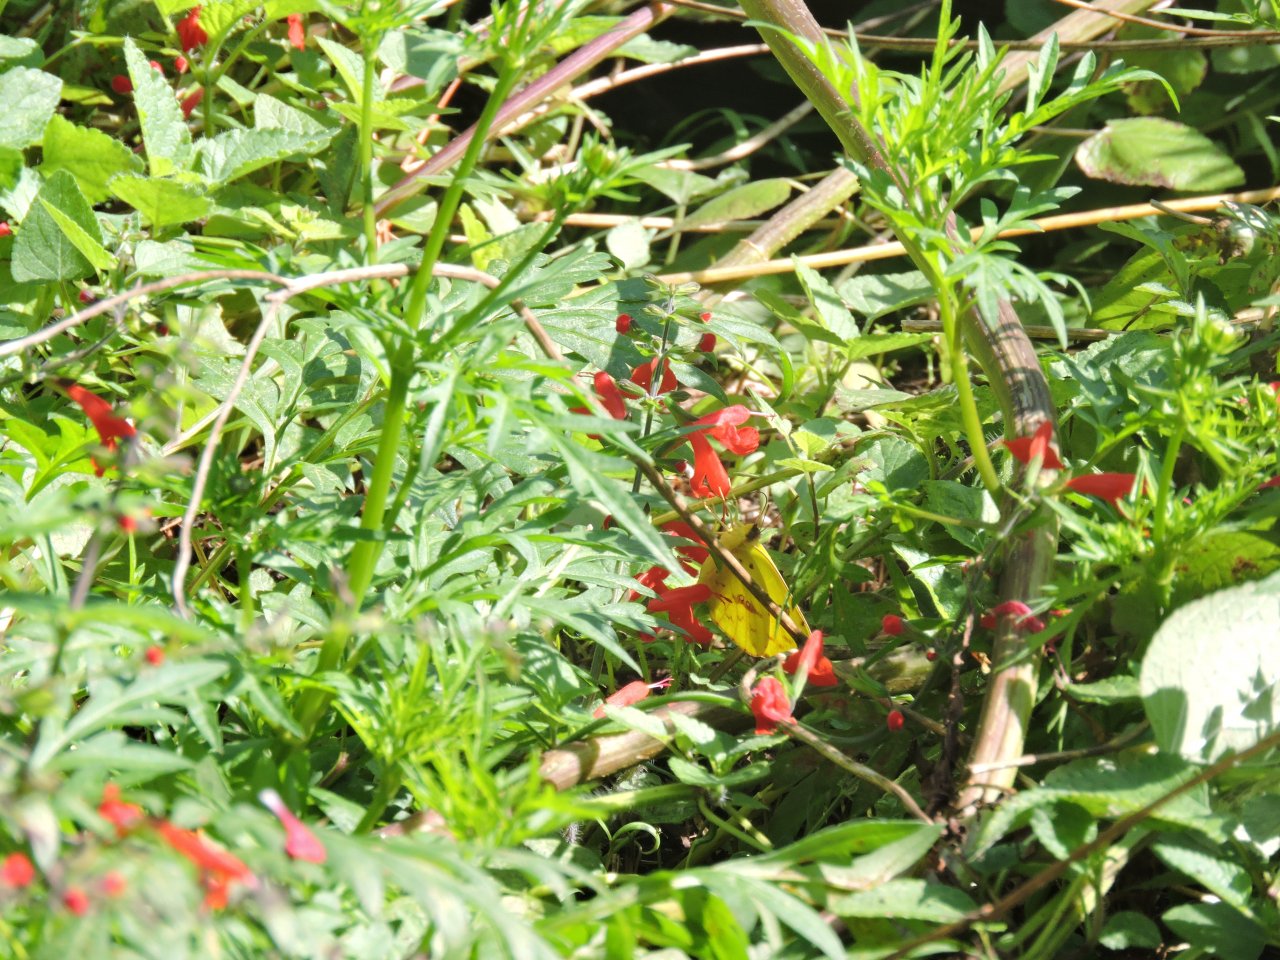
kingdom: Animalia
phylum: Arthropoda
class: Insecta
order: Lepidoptera
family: Pieridae
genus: Phoebis
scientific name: Phoebis sennae
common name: Cloudless Sulphur
